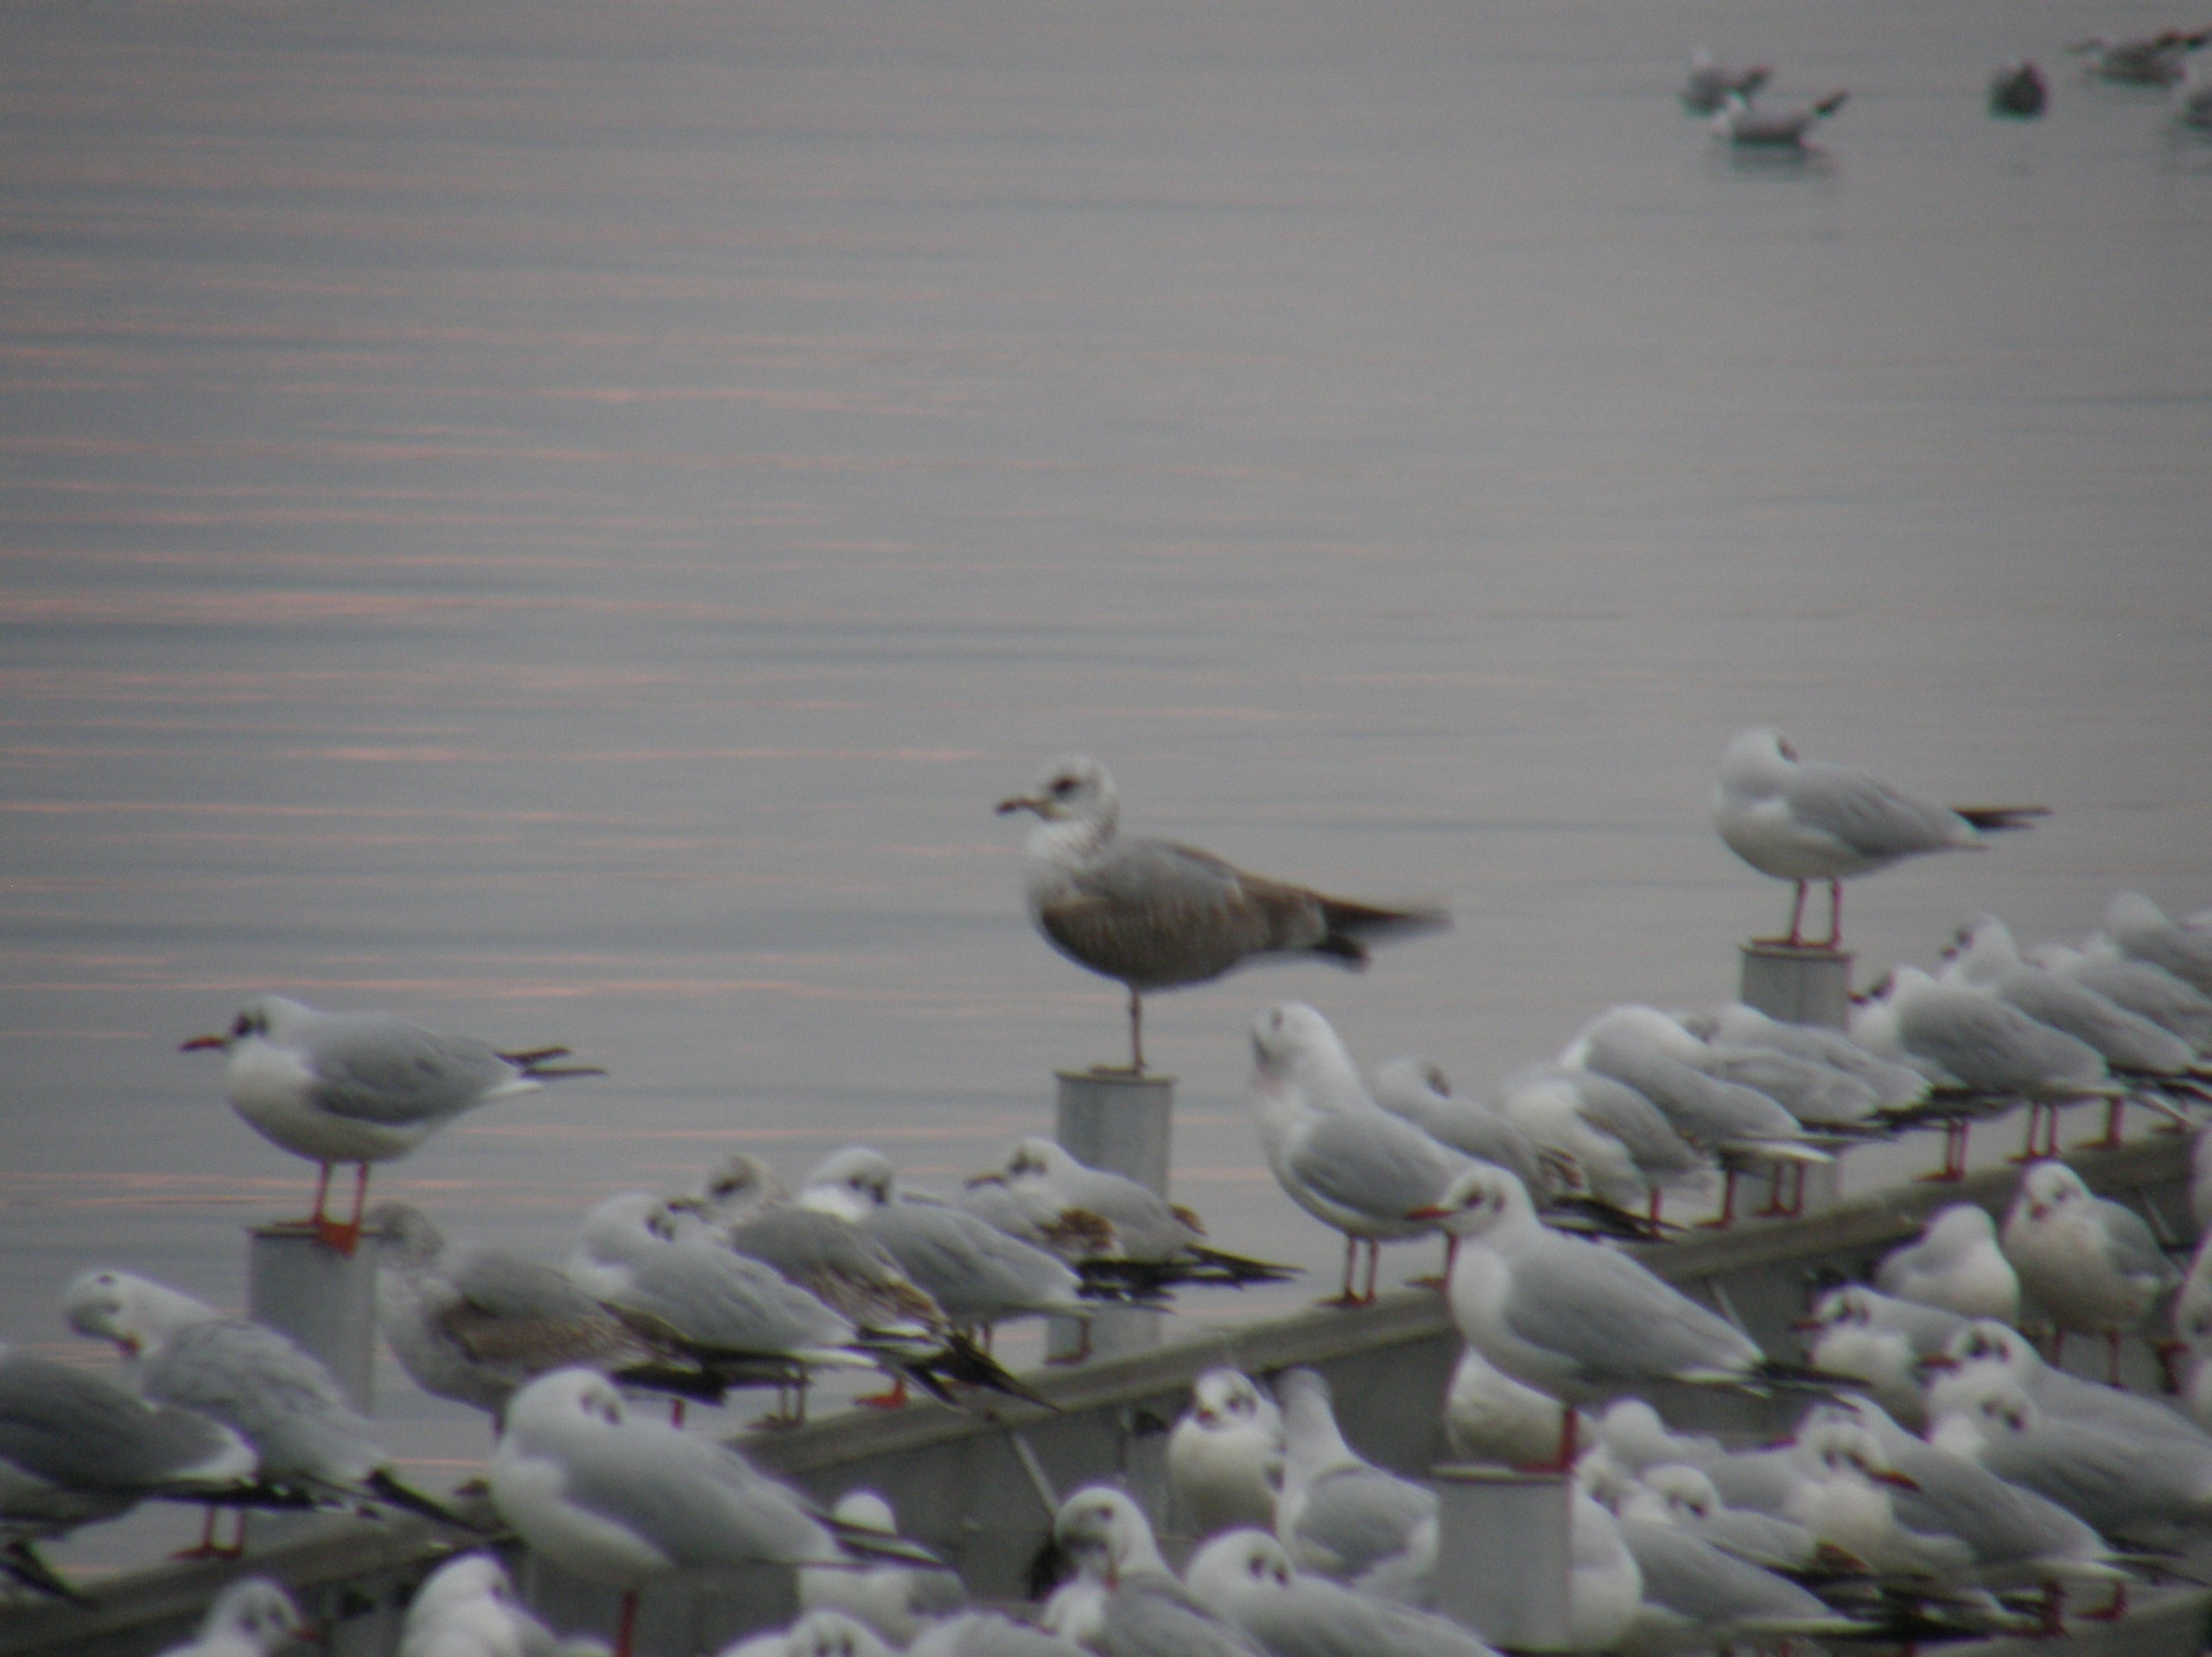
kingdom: Animalia
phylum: Chordata
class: Aves
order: Charadriiformes
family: Laridae
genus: Chroicocephalus
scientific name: Chroicocephalus ridibundus
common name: Hættemåge
